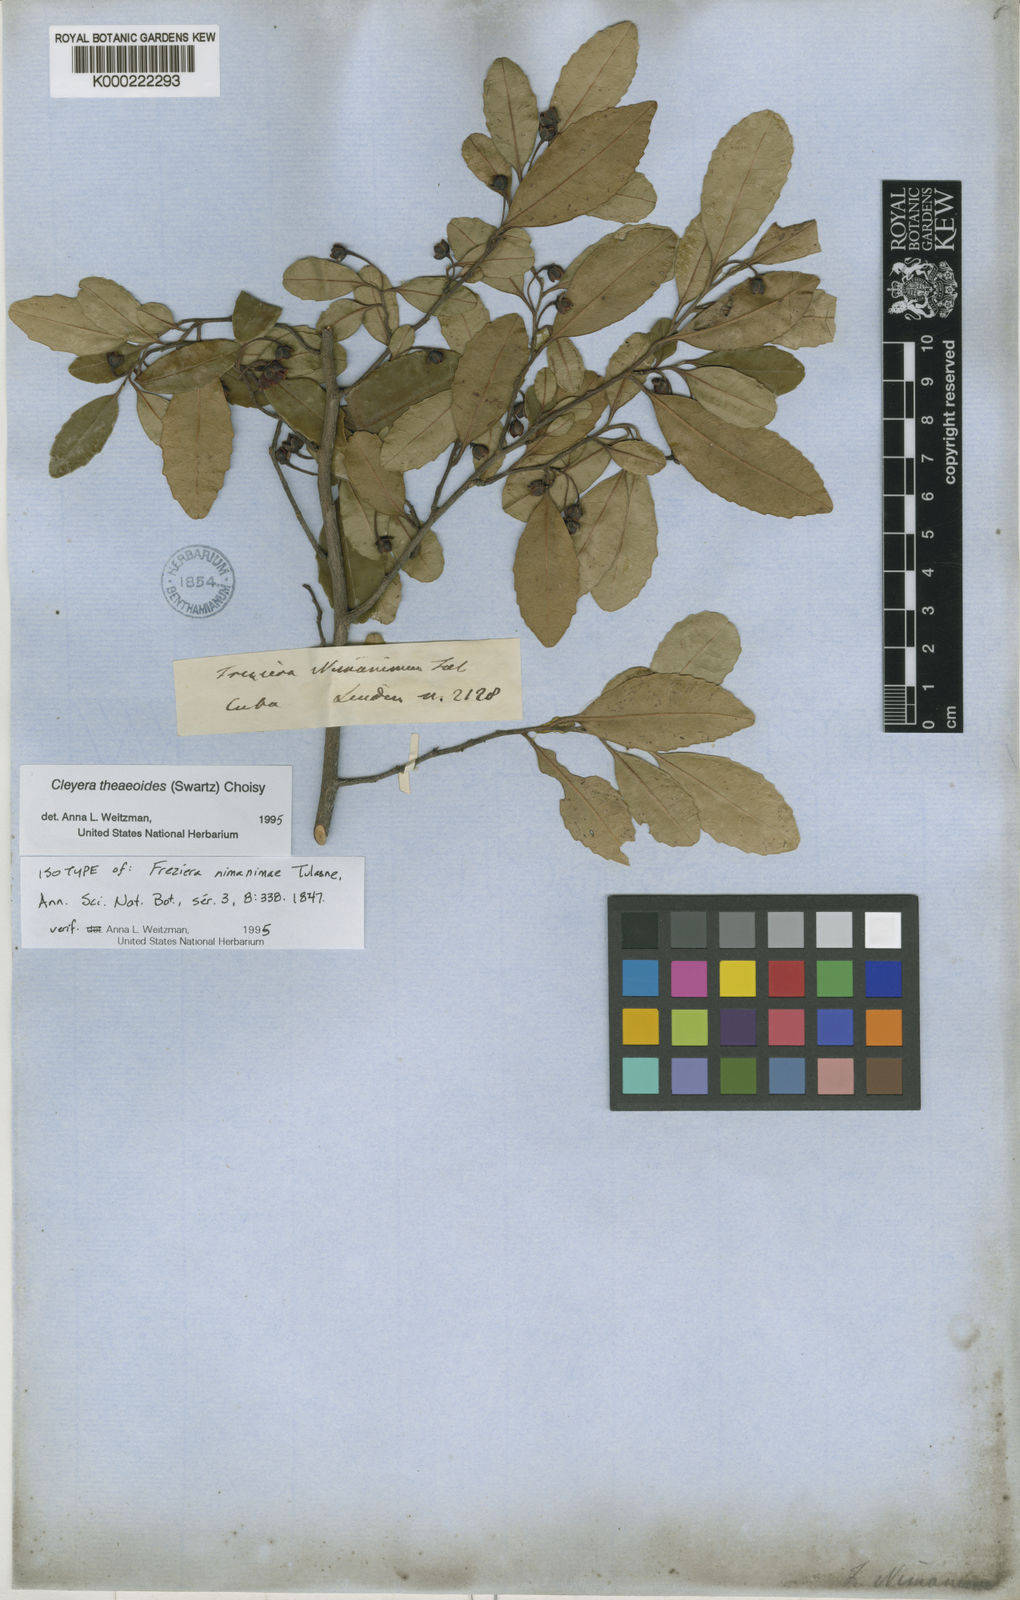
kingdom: Plantae
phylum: Tracheophyta
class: Magnoliopsida
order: Ericales
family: Pentaphylacaceae
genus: Cleyera
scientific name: Cleyera nimanimae
